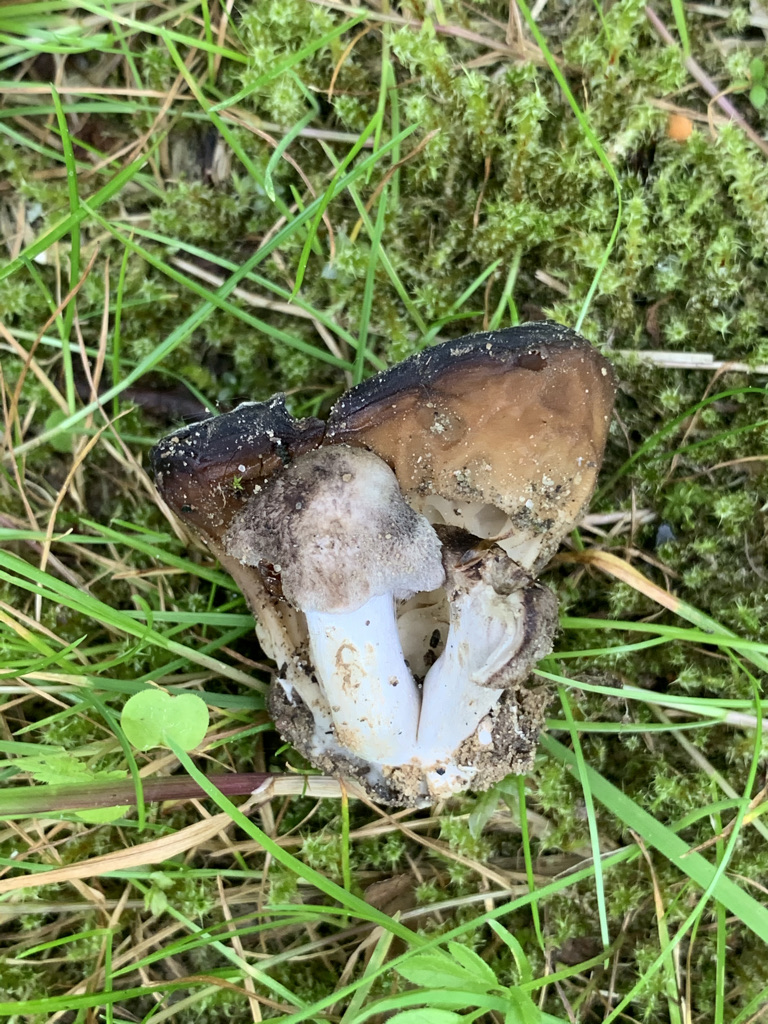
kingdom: Fungi
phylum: Ascomycota
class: Pezizomycetes
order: Pezizales
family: Helvellaceae
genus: Helvella
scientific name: Helvella acetabulum
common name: pokal-foldhat
